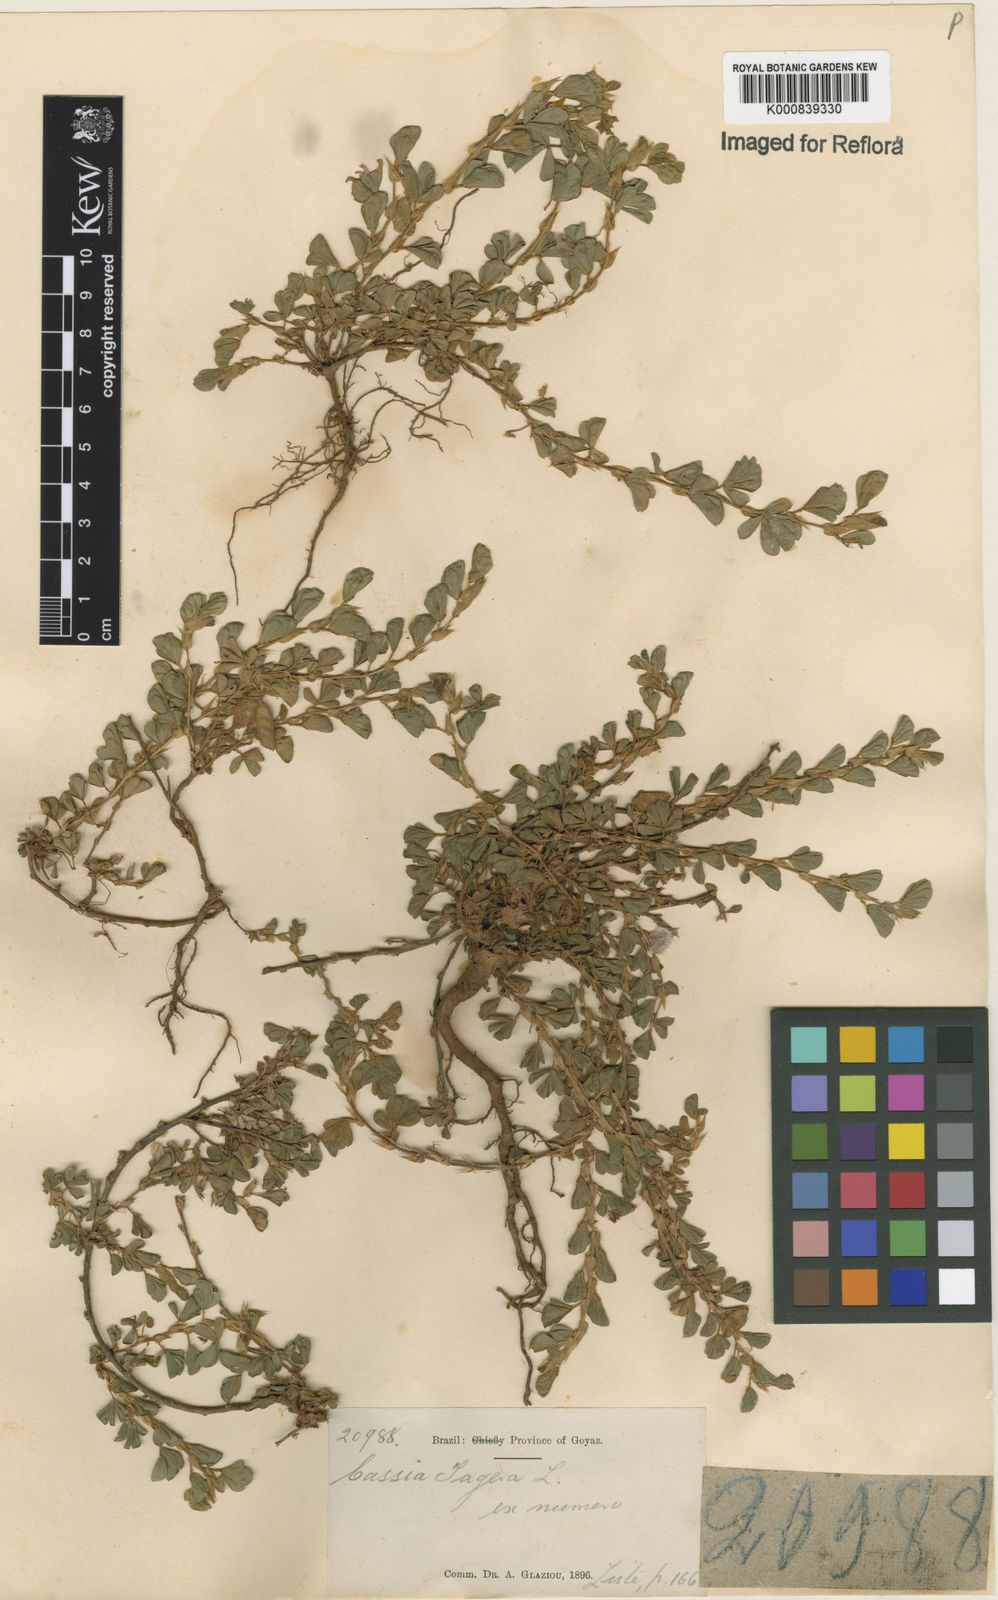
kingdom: Plantae
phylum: Tracheophyta
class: Magnoliopsida
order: Fabales
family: Fabaceae
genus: Chamaecrista
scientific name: Chamaecrista kunthiana
